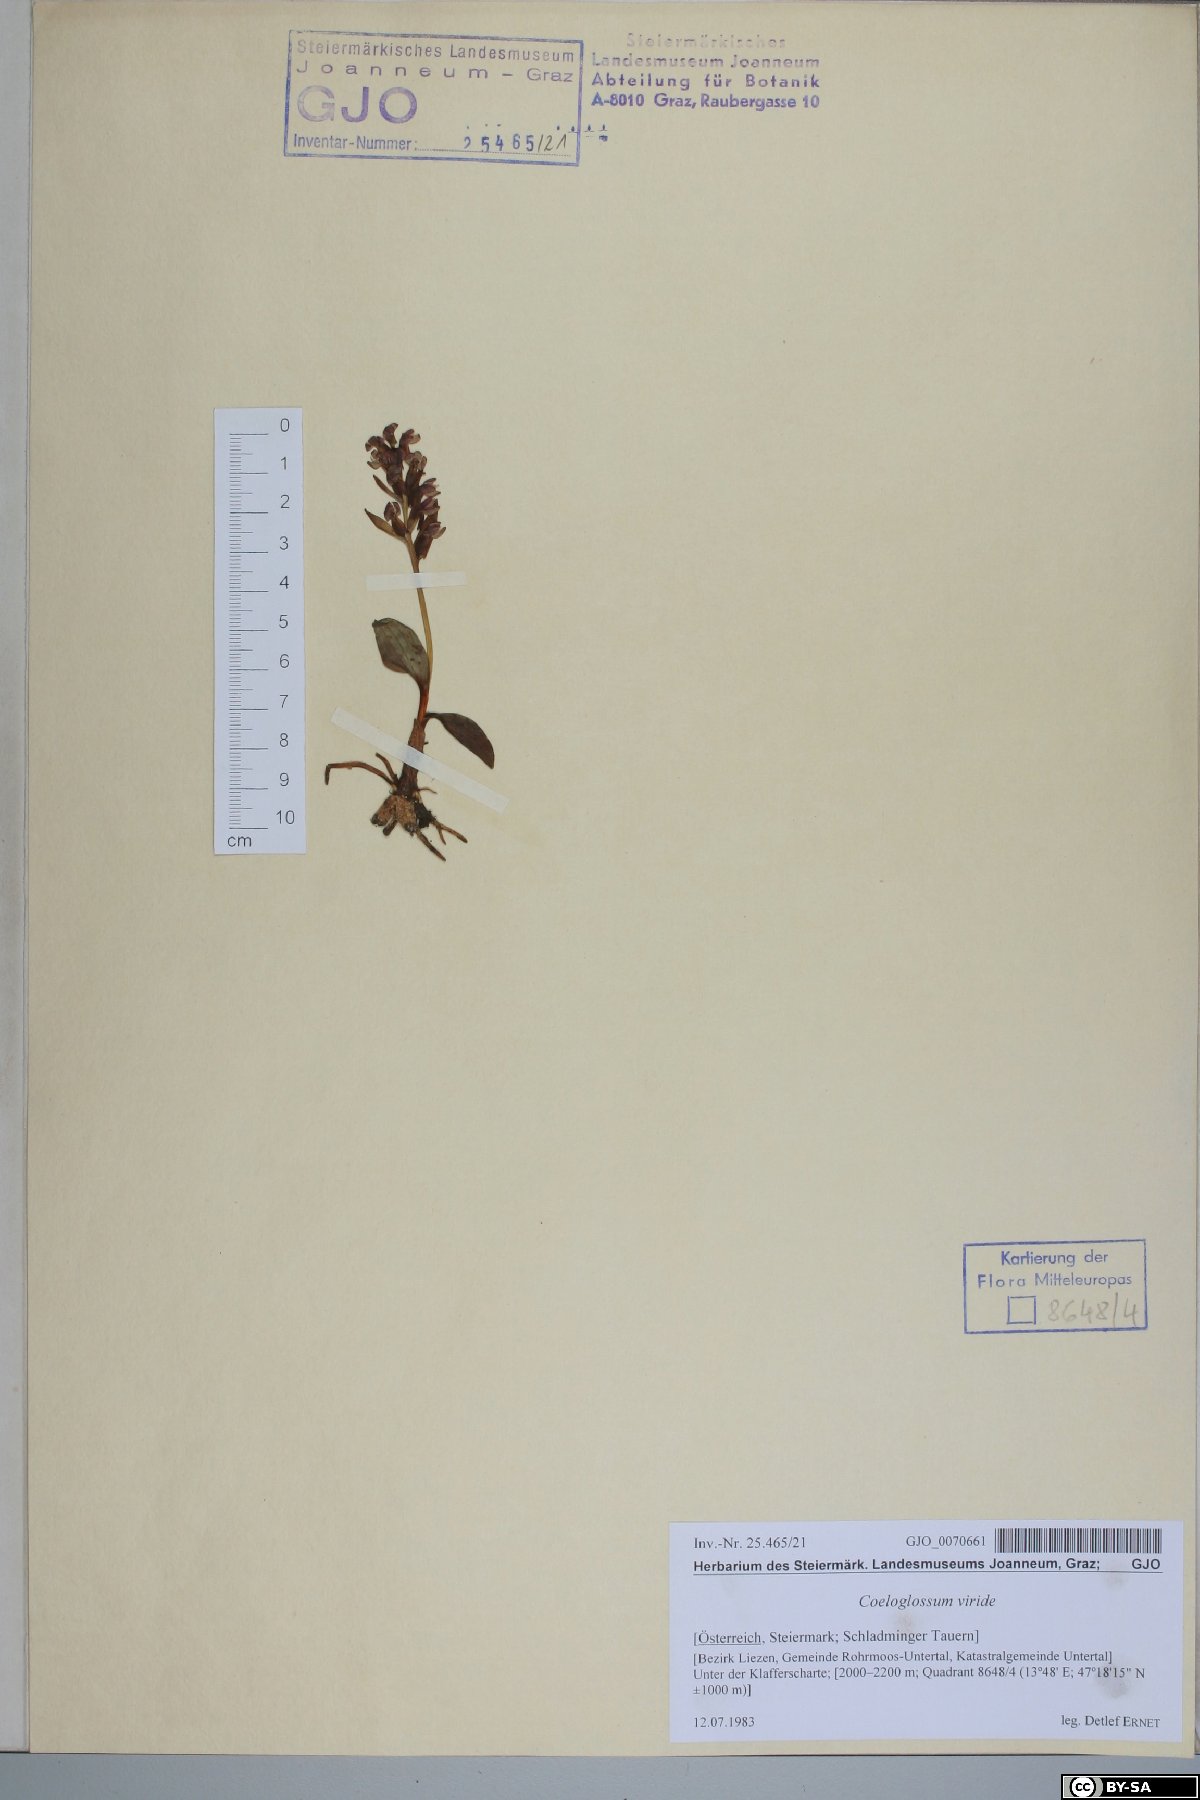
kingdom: Plantae
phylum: Tracheophyta
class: Liliopsida
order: Asparagales
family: Orchidaceae
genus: Dactylorhiza
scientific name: Dactylorhiza viridis
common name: Longbract frog orchid
